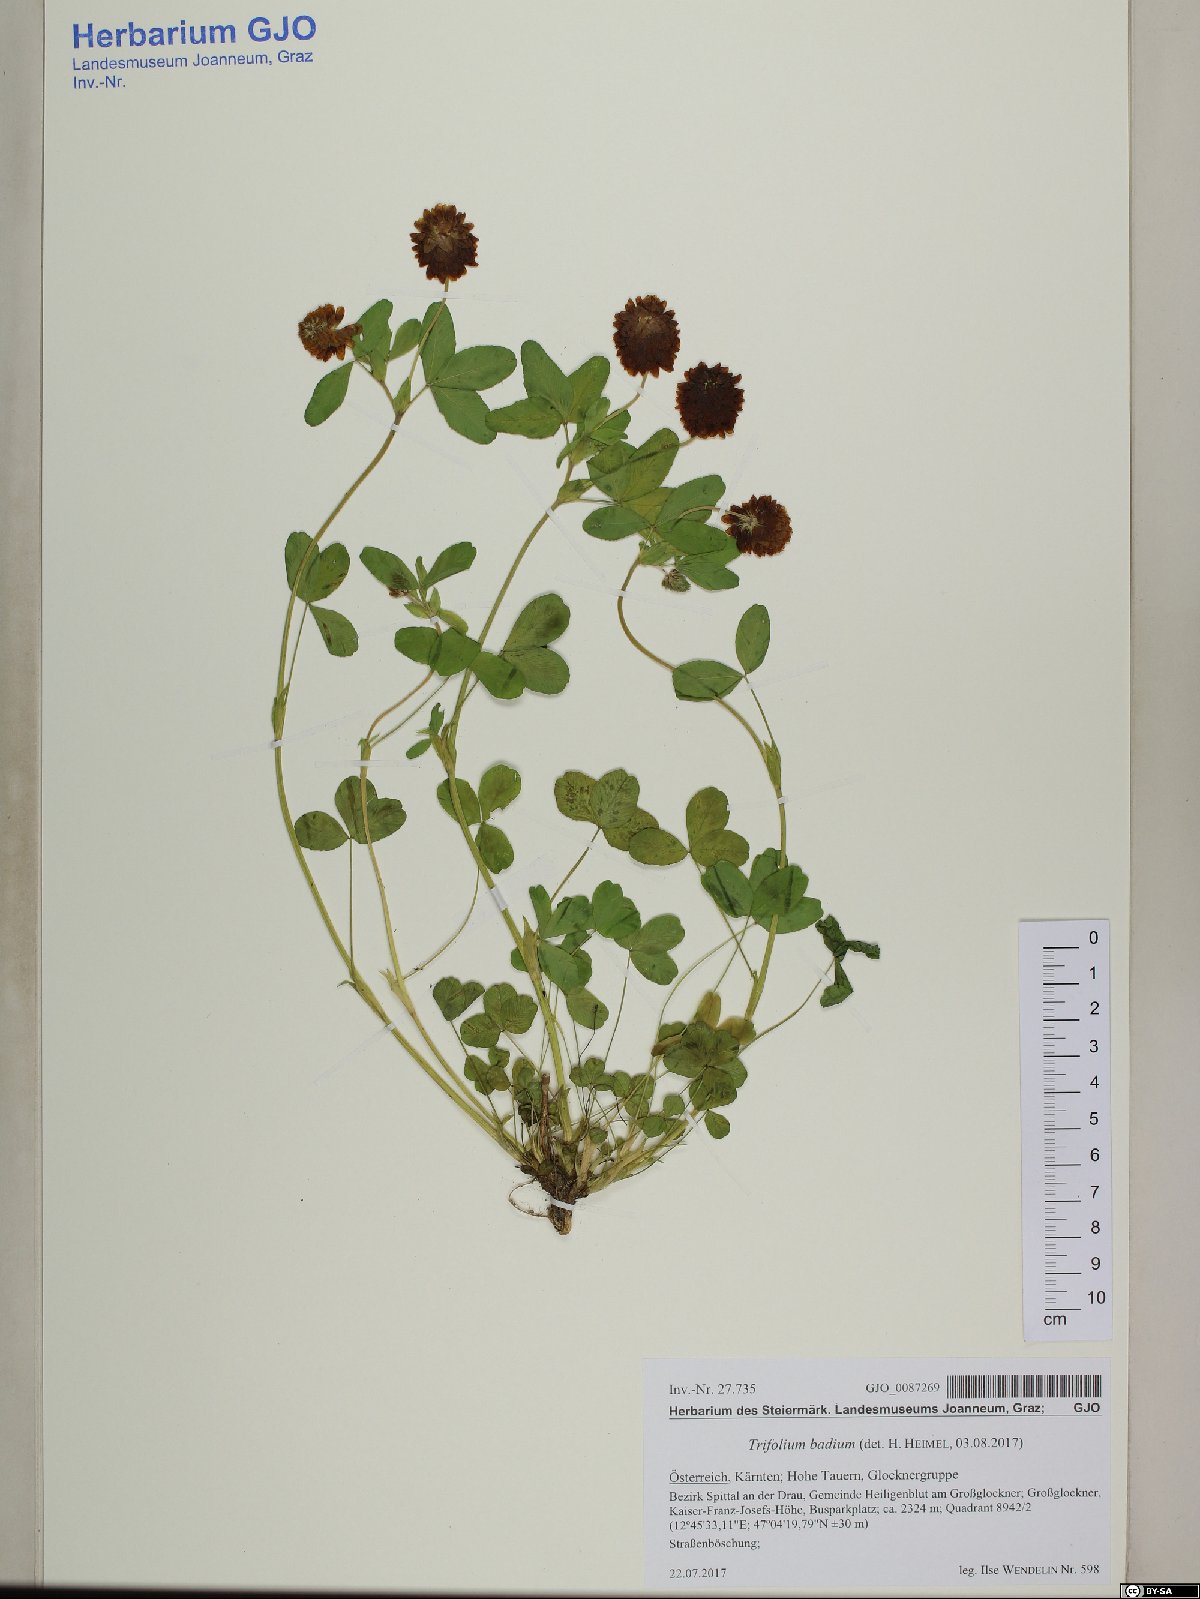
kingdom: Plantae
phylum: Tracheophyta
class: Magnoliopsida
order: Fabales
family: Fabaceae
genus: Trifolium
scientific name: Trifolium badium
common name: Brown clover
